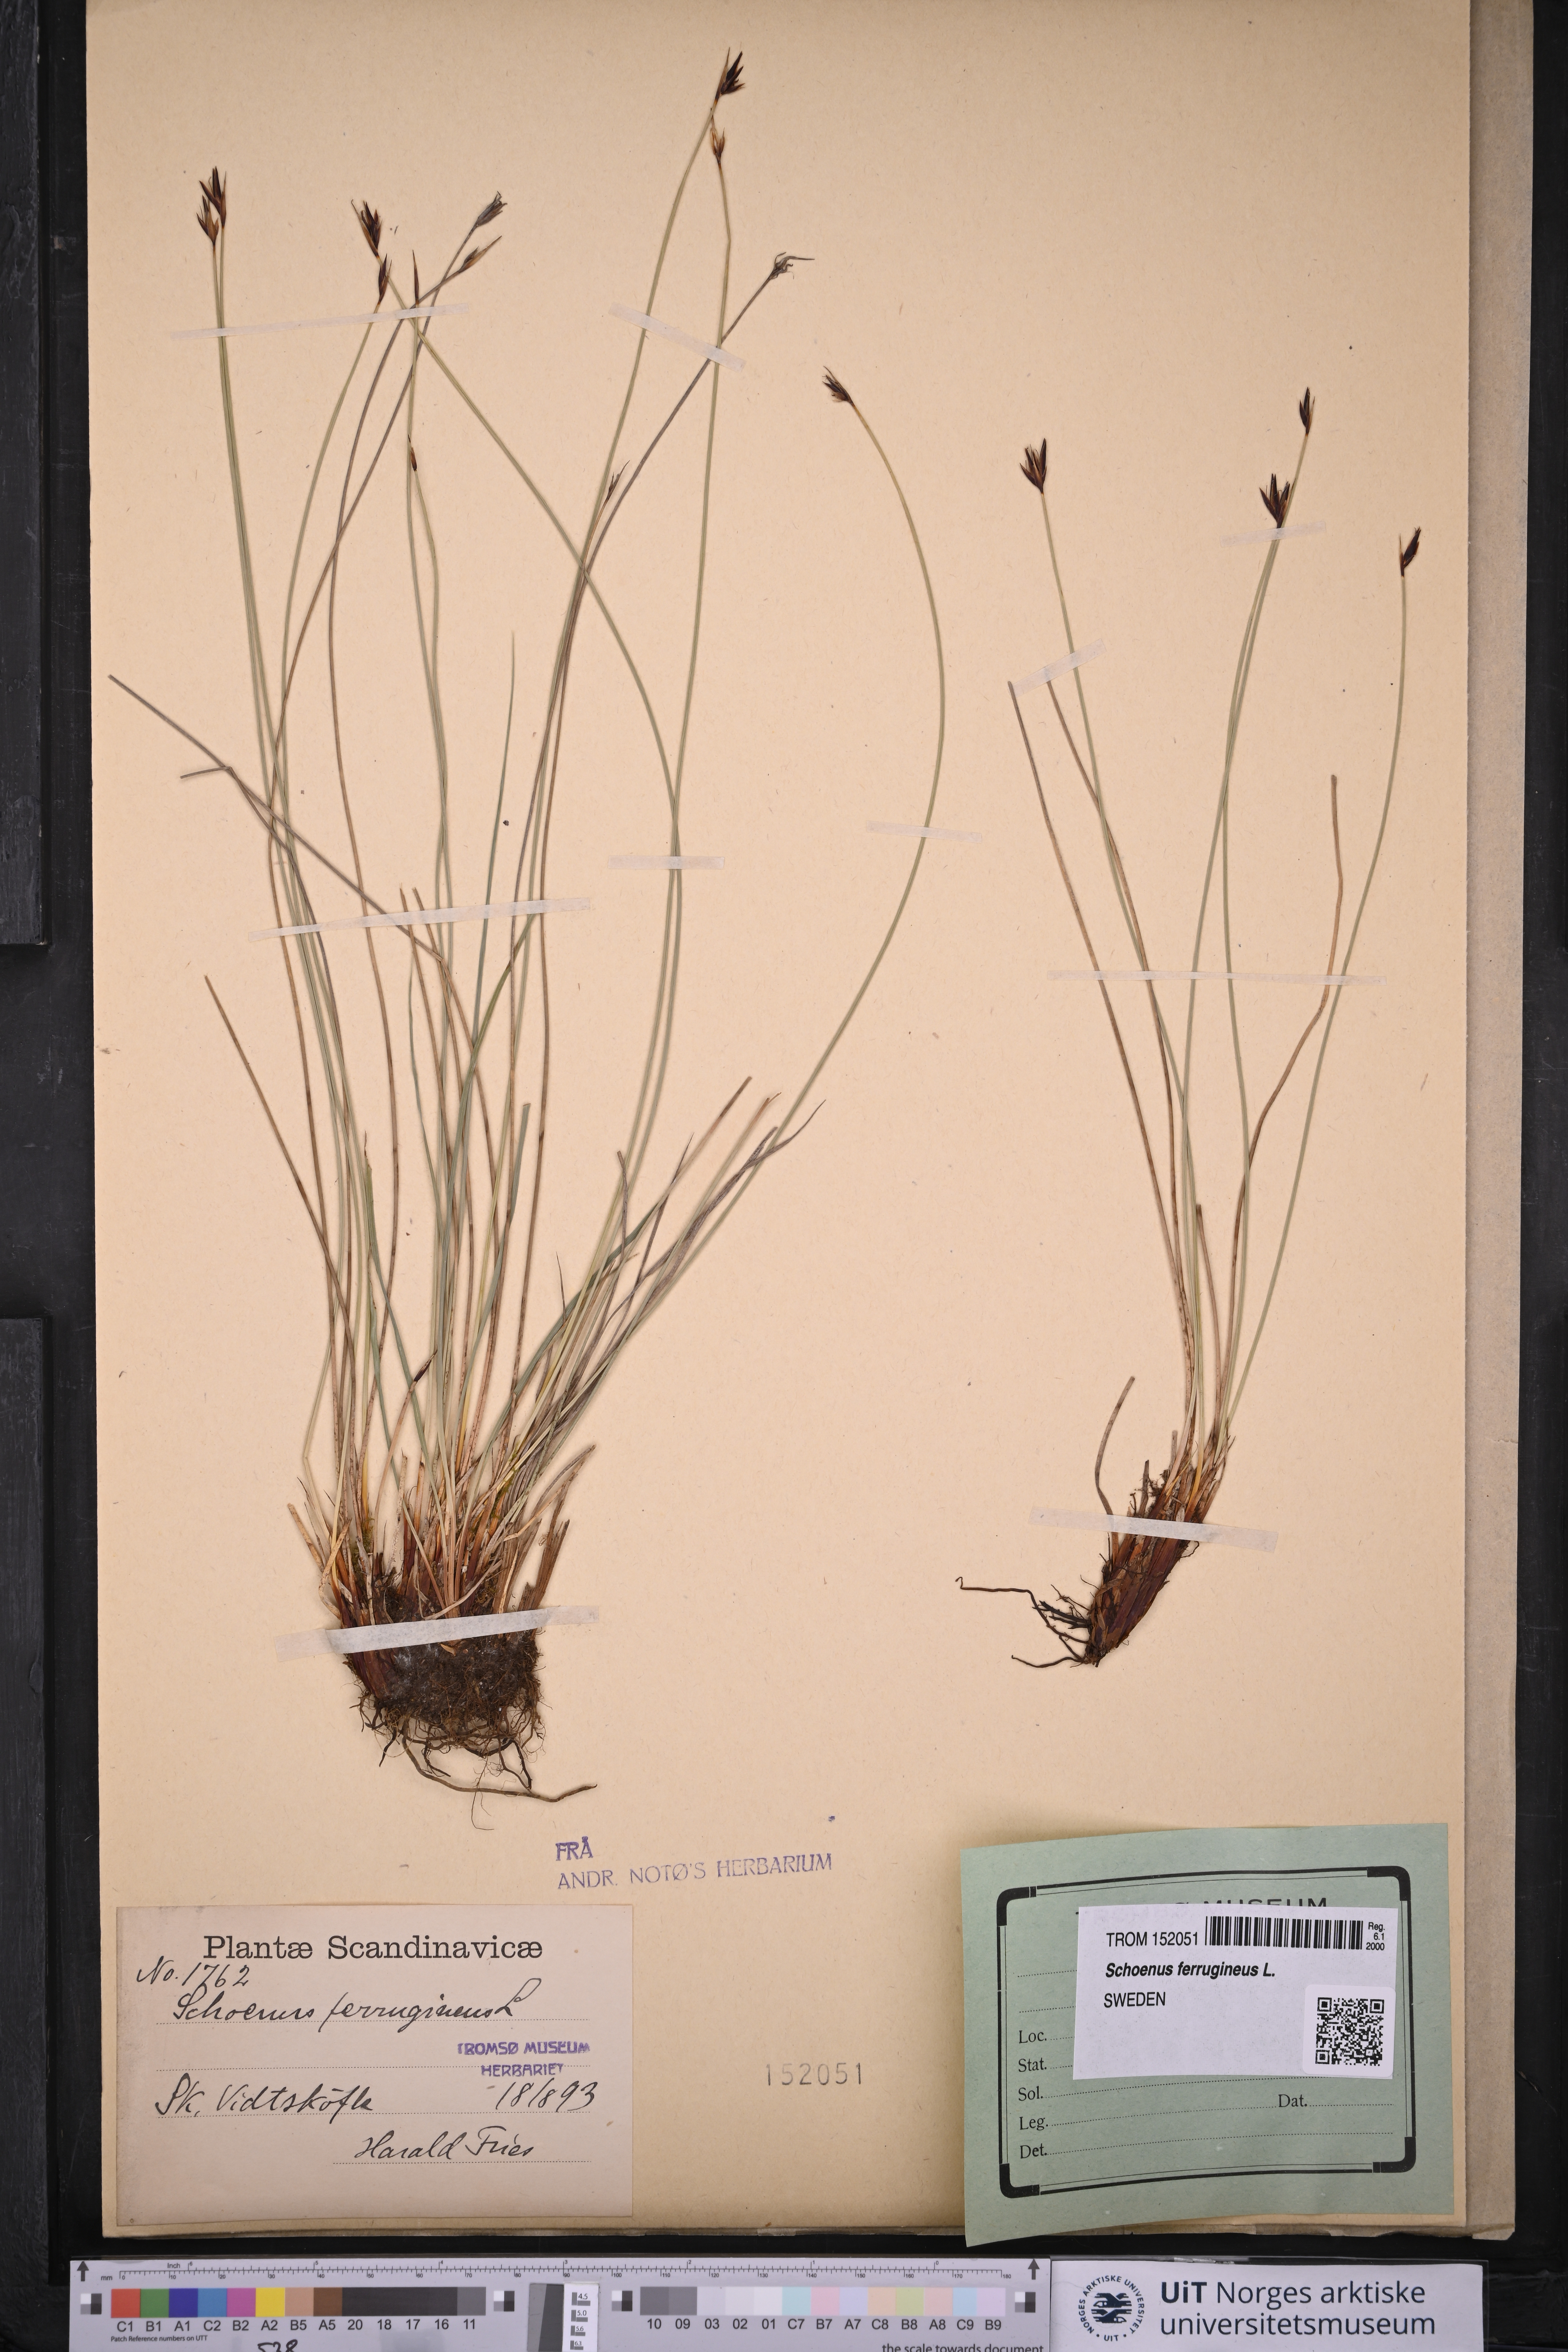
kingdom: Plantae
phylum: Tracheophyta
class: Liliopsida
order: Poales
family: Cyperaceae
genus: Schoenus
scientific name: Schoenus ferrugineus
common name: Brown bog-rush
